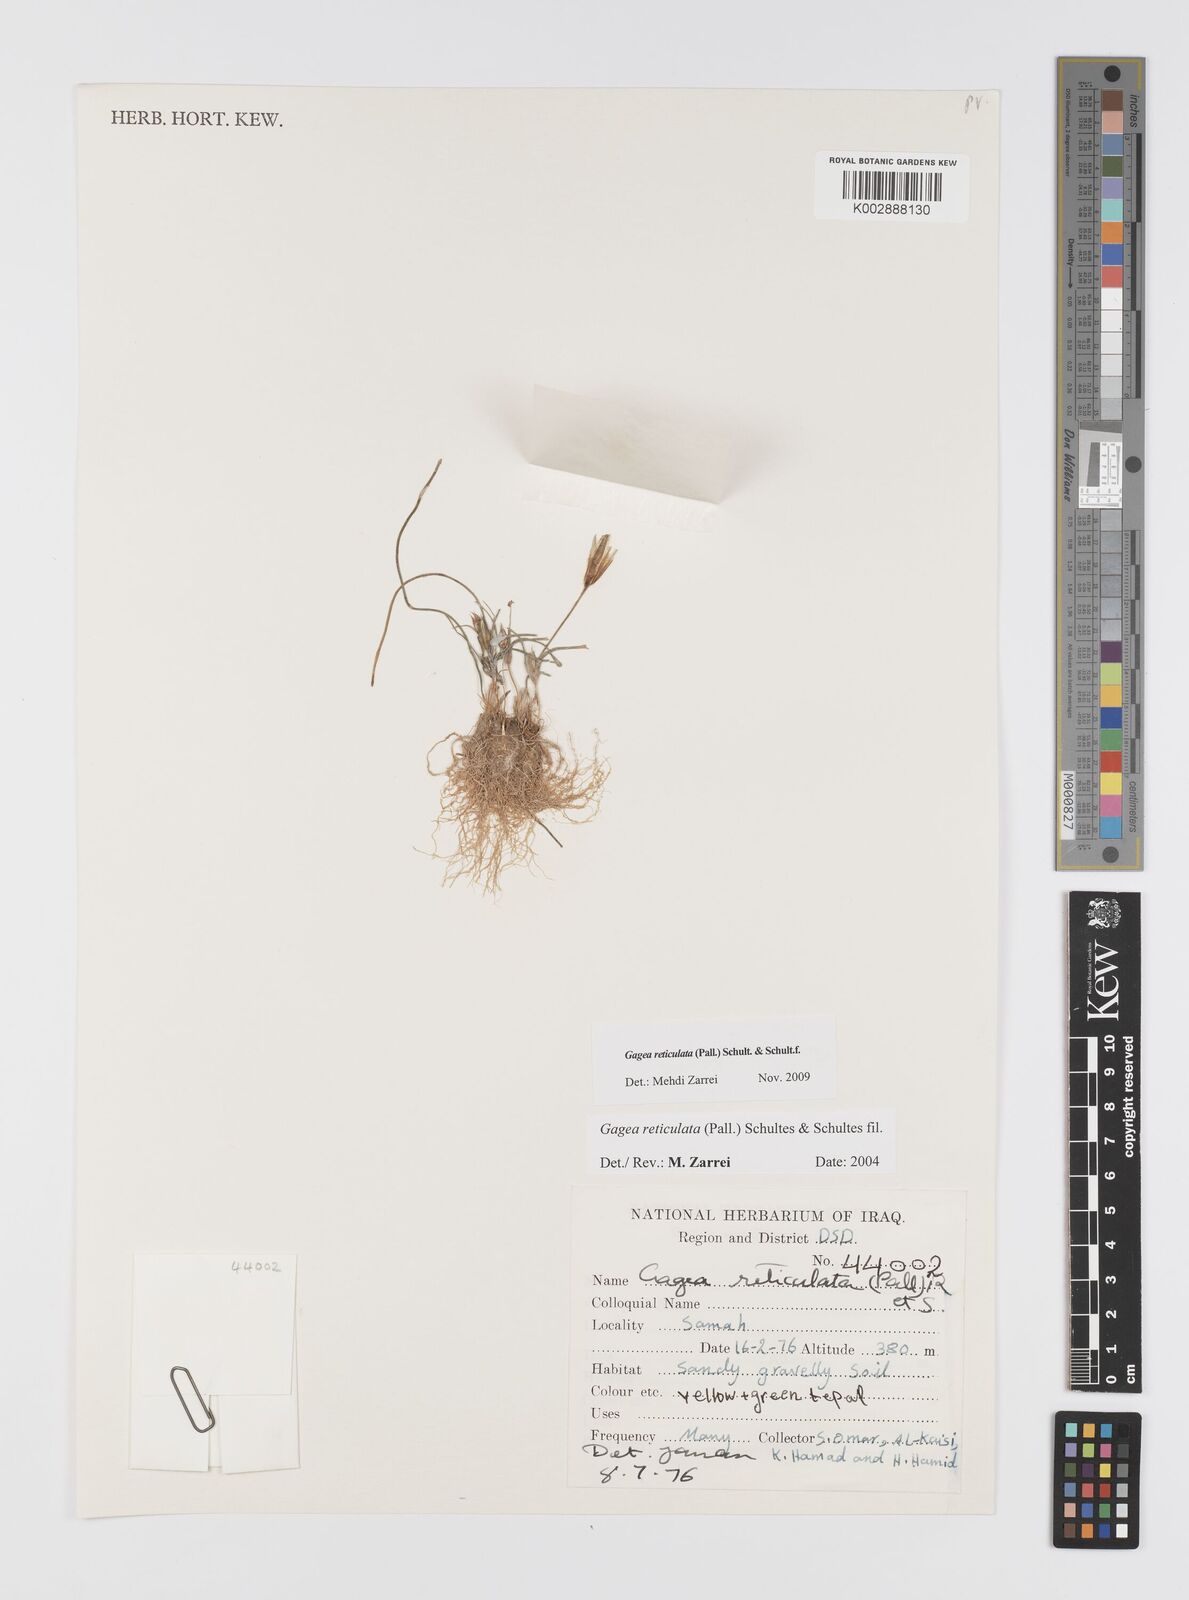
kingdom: Plantae
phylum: Tracheophyta
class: Liliopsida
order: Liliales
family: Liliaceae
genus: Gagea
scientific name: Gagea reticulata
